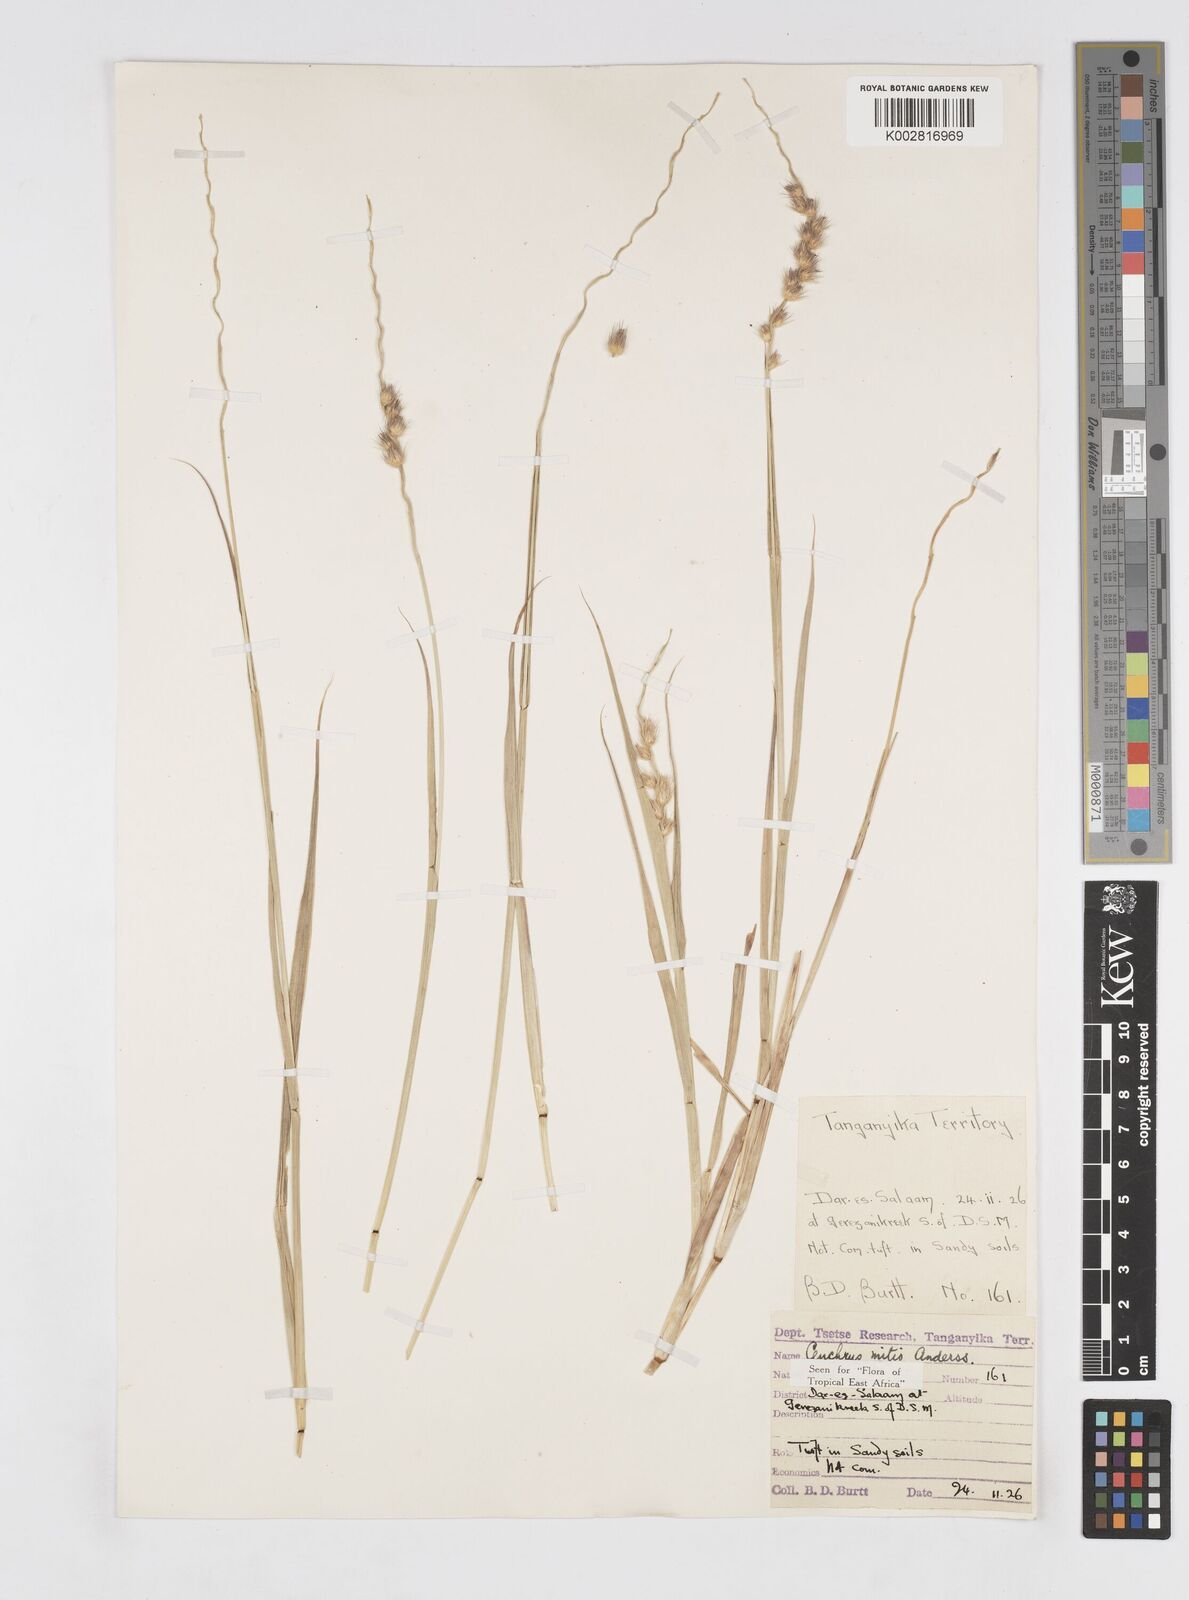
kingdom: Plantae
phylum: Tracheophyta
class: Liliopsida
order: Poales
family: Poaceae
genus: Cenchrus
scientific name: Cenchrus mitis
